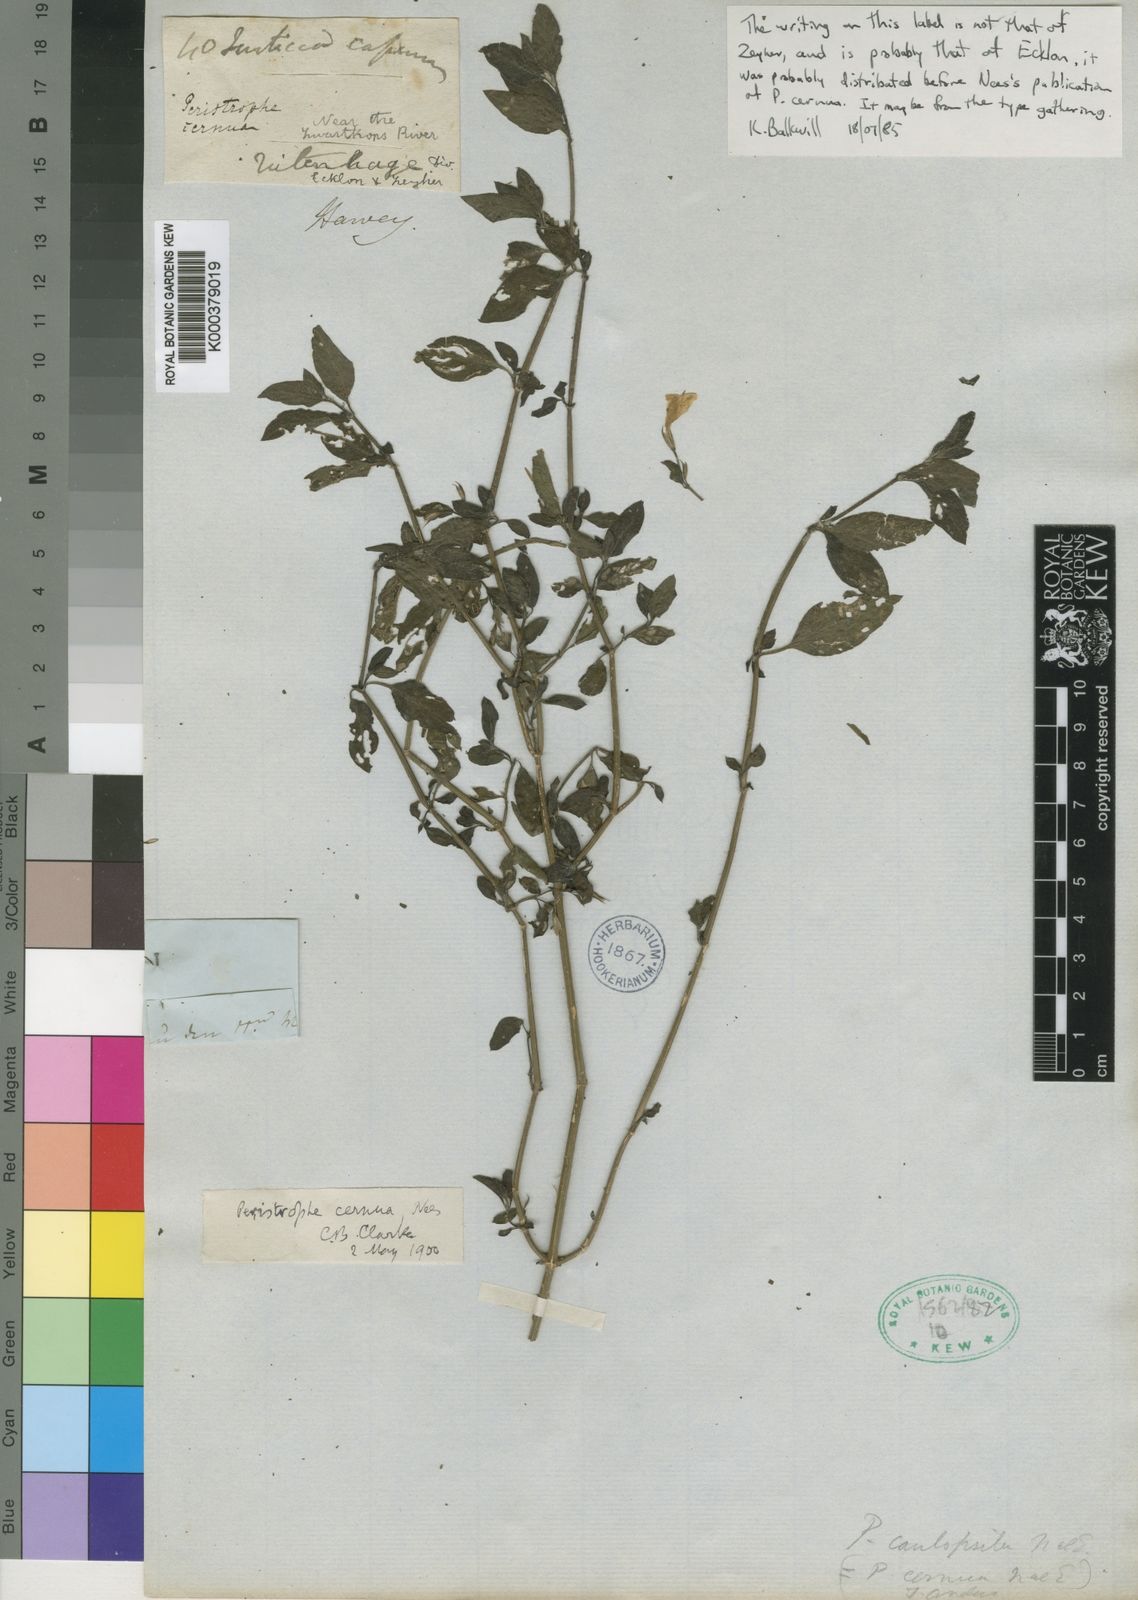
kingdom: Plantae
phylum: Tracheophyta
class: Magnoliopsida
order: Lamiales
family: Acanthaceae
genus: Dicliptera
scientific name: Dicliptera cernua
